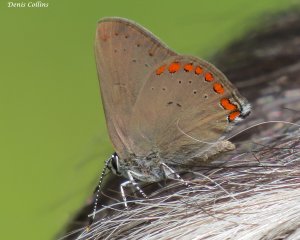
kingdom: Animalia
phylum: Arthropoda
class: Insecta
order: Lepidoptera
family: Lycaenidae
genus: Harkenclenus
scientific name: Harkenclenus titus
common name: Coral Hairstreak
